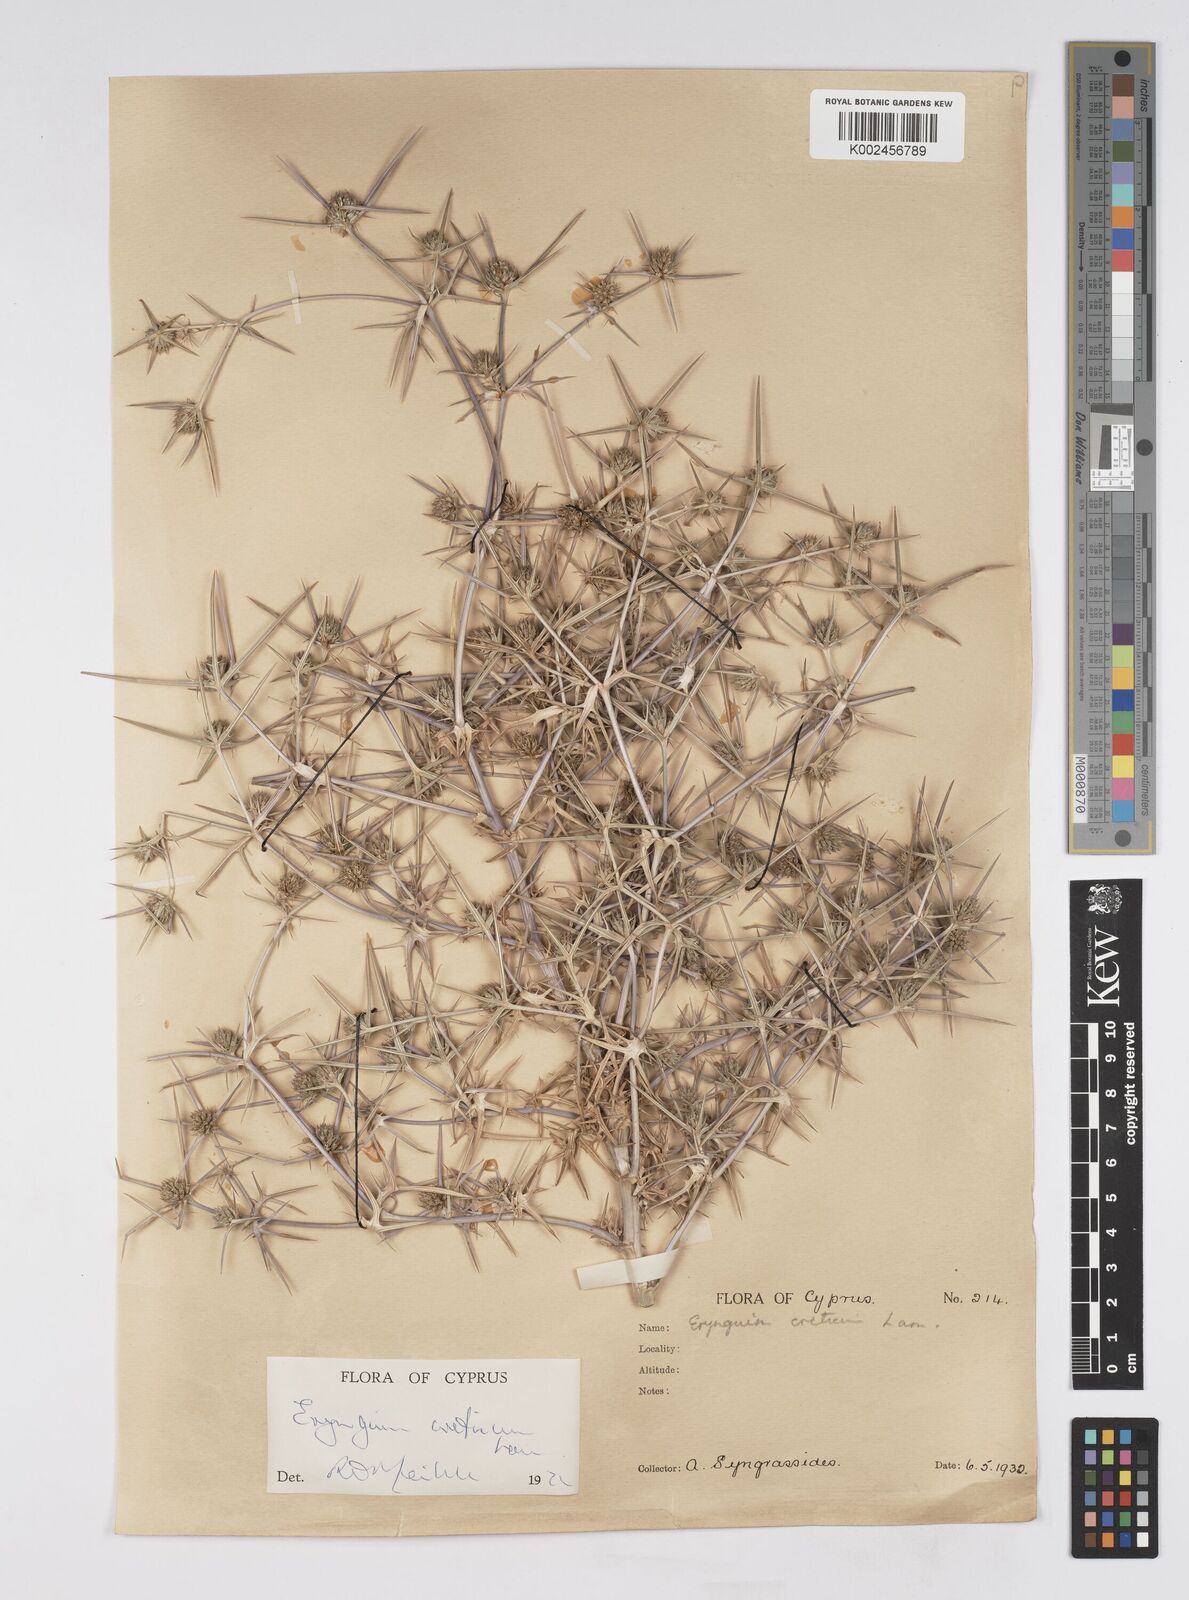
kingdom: Plantae
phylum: Tracheophyta
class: Magnoliopsida
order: Apiales
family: Apiaceae
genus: Eryngium
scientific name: Eryngium creticum
